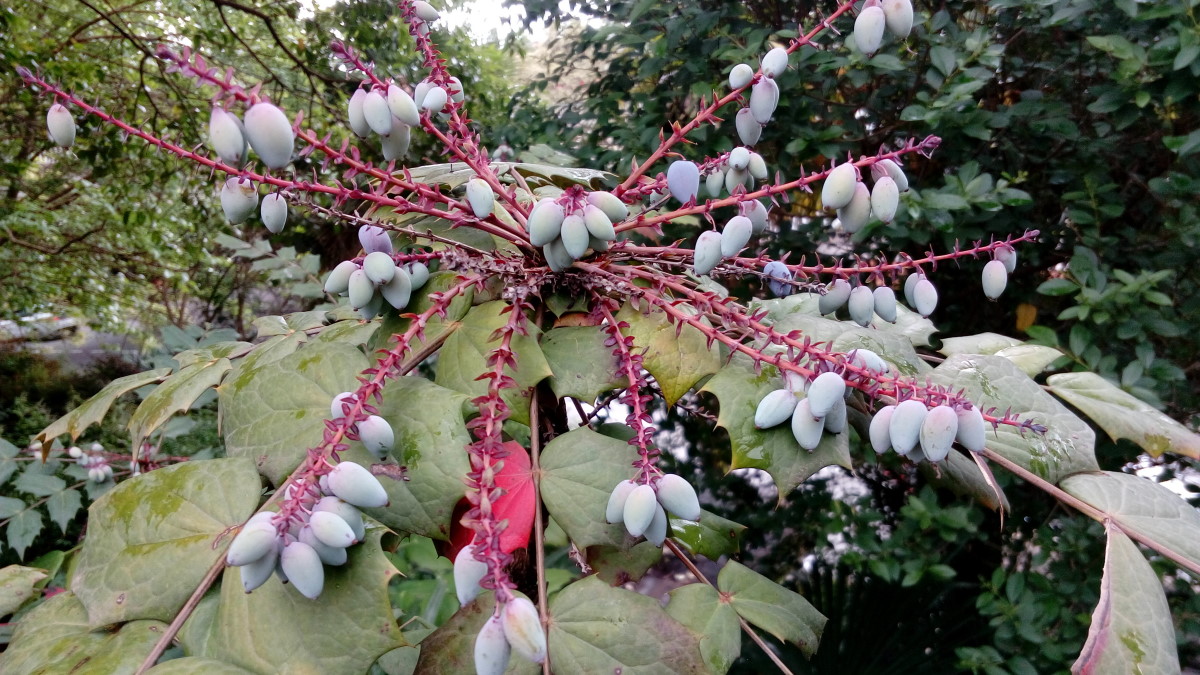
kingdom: Plantae
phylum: Tracheophyta
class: Magnoliopsida
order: Ranunculales
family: Berberidaceae
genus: Mahonia
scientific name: Mahonia aquifolium
